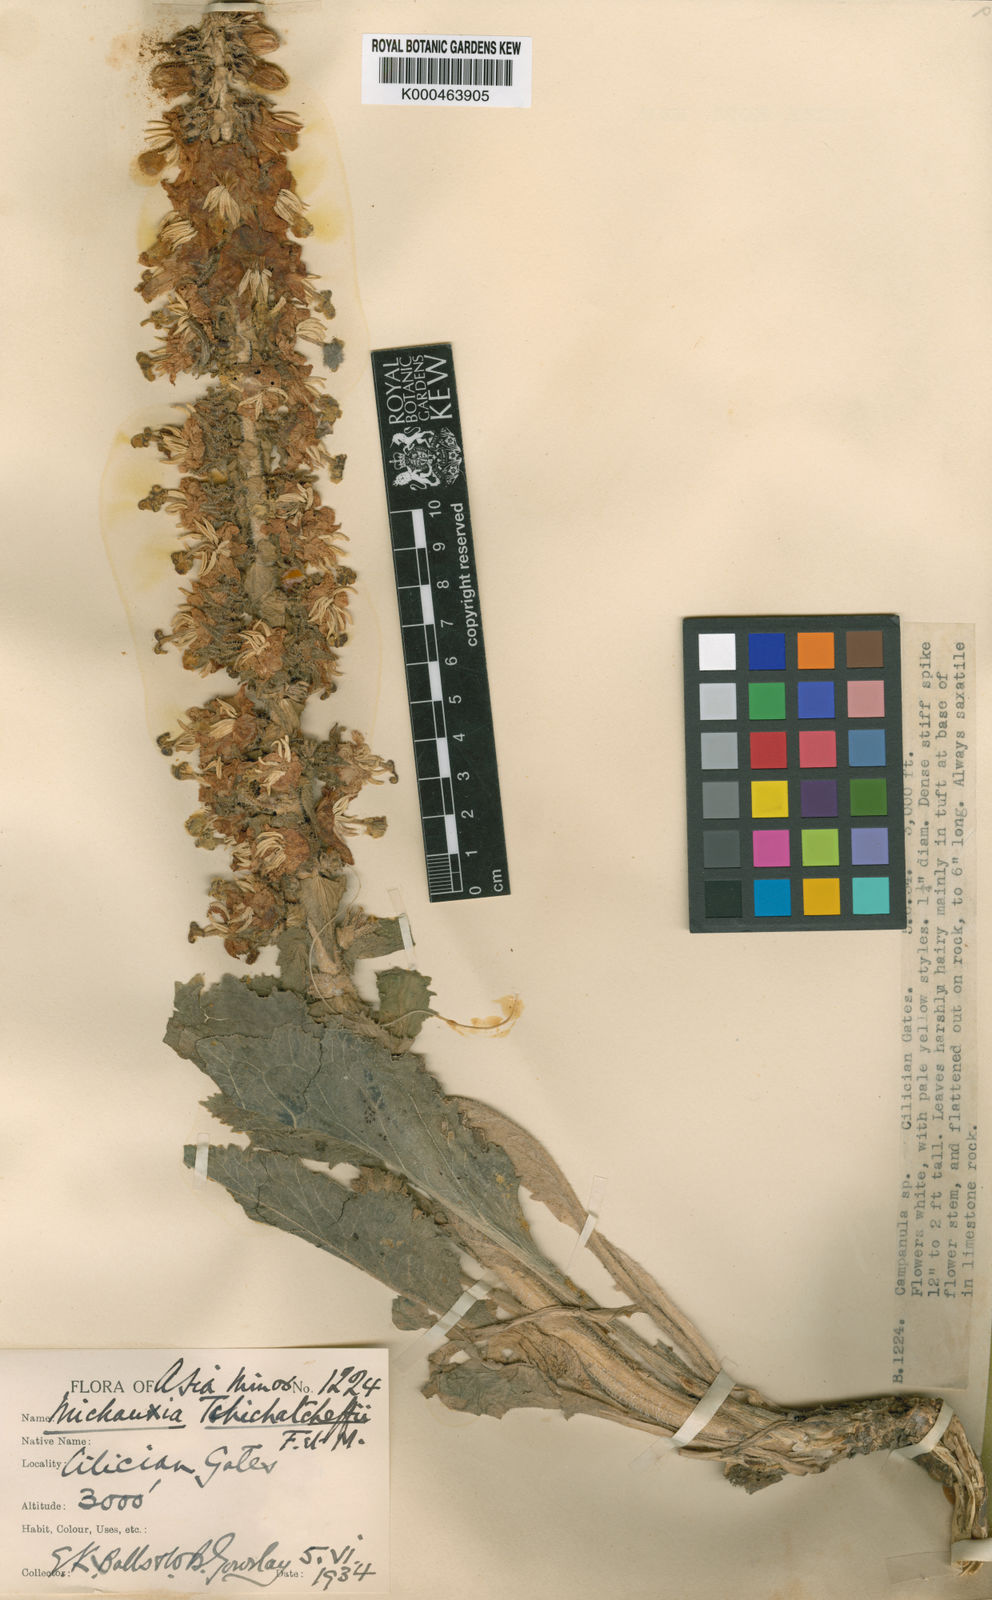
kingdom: Plantae
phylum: Tracheophyta
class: Magnoliopsida
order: Asterales
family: Campanulaceae
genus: Michauxia
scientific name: Michauxia tchihatcheffii
